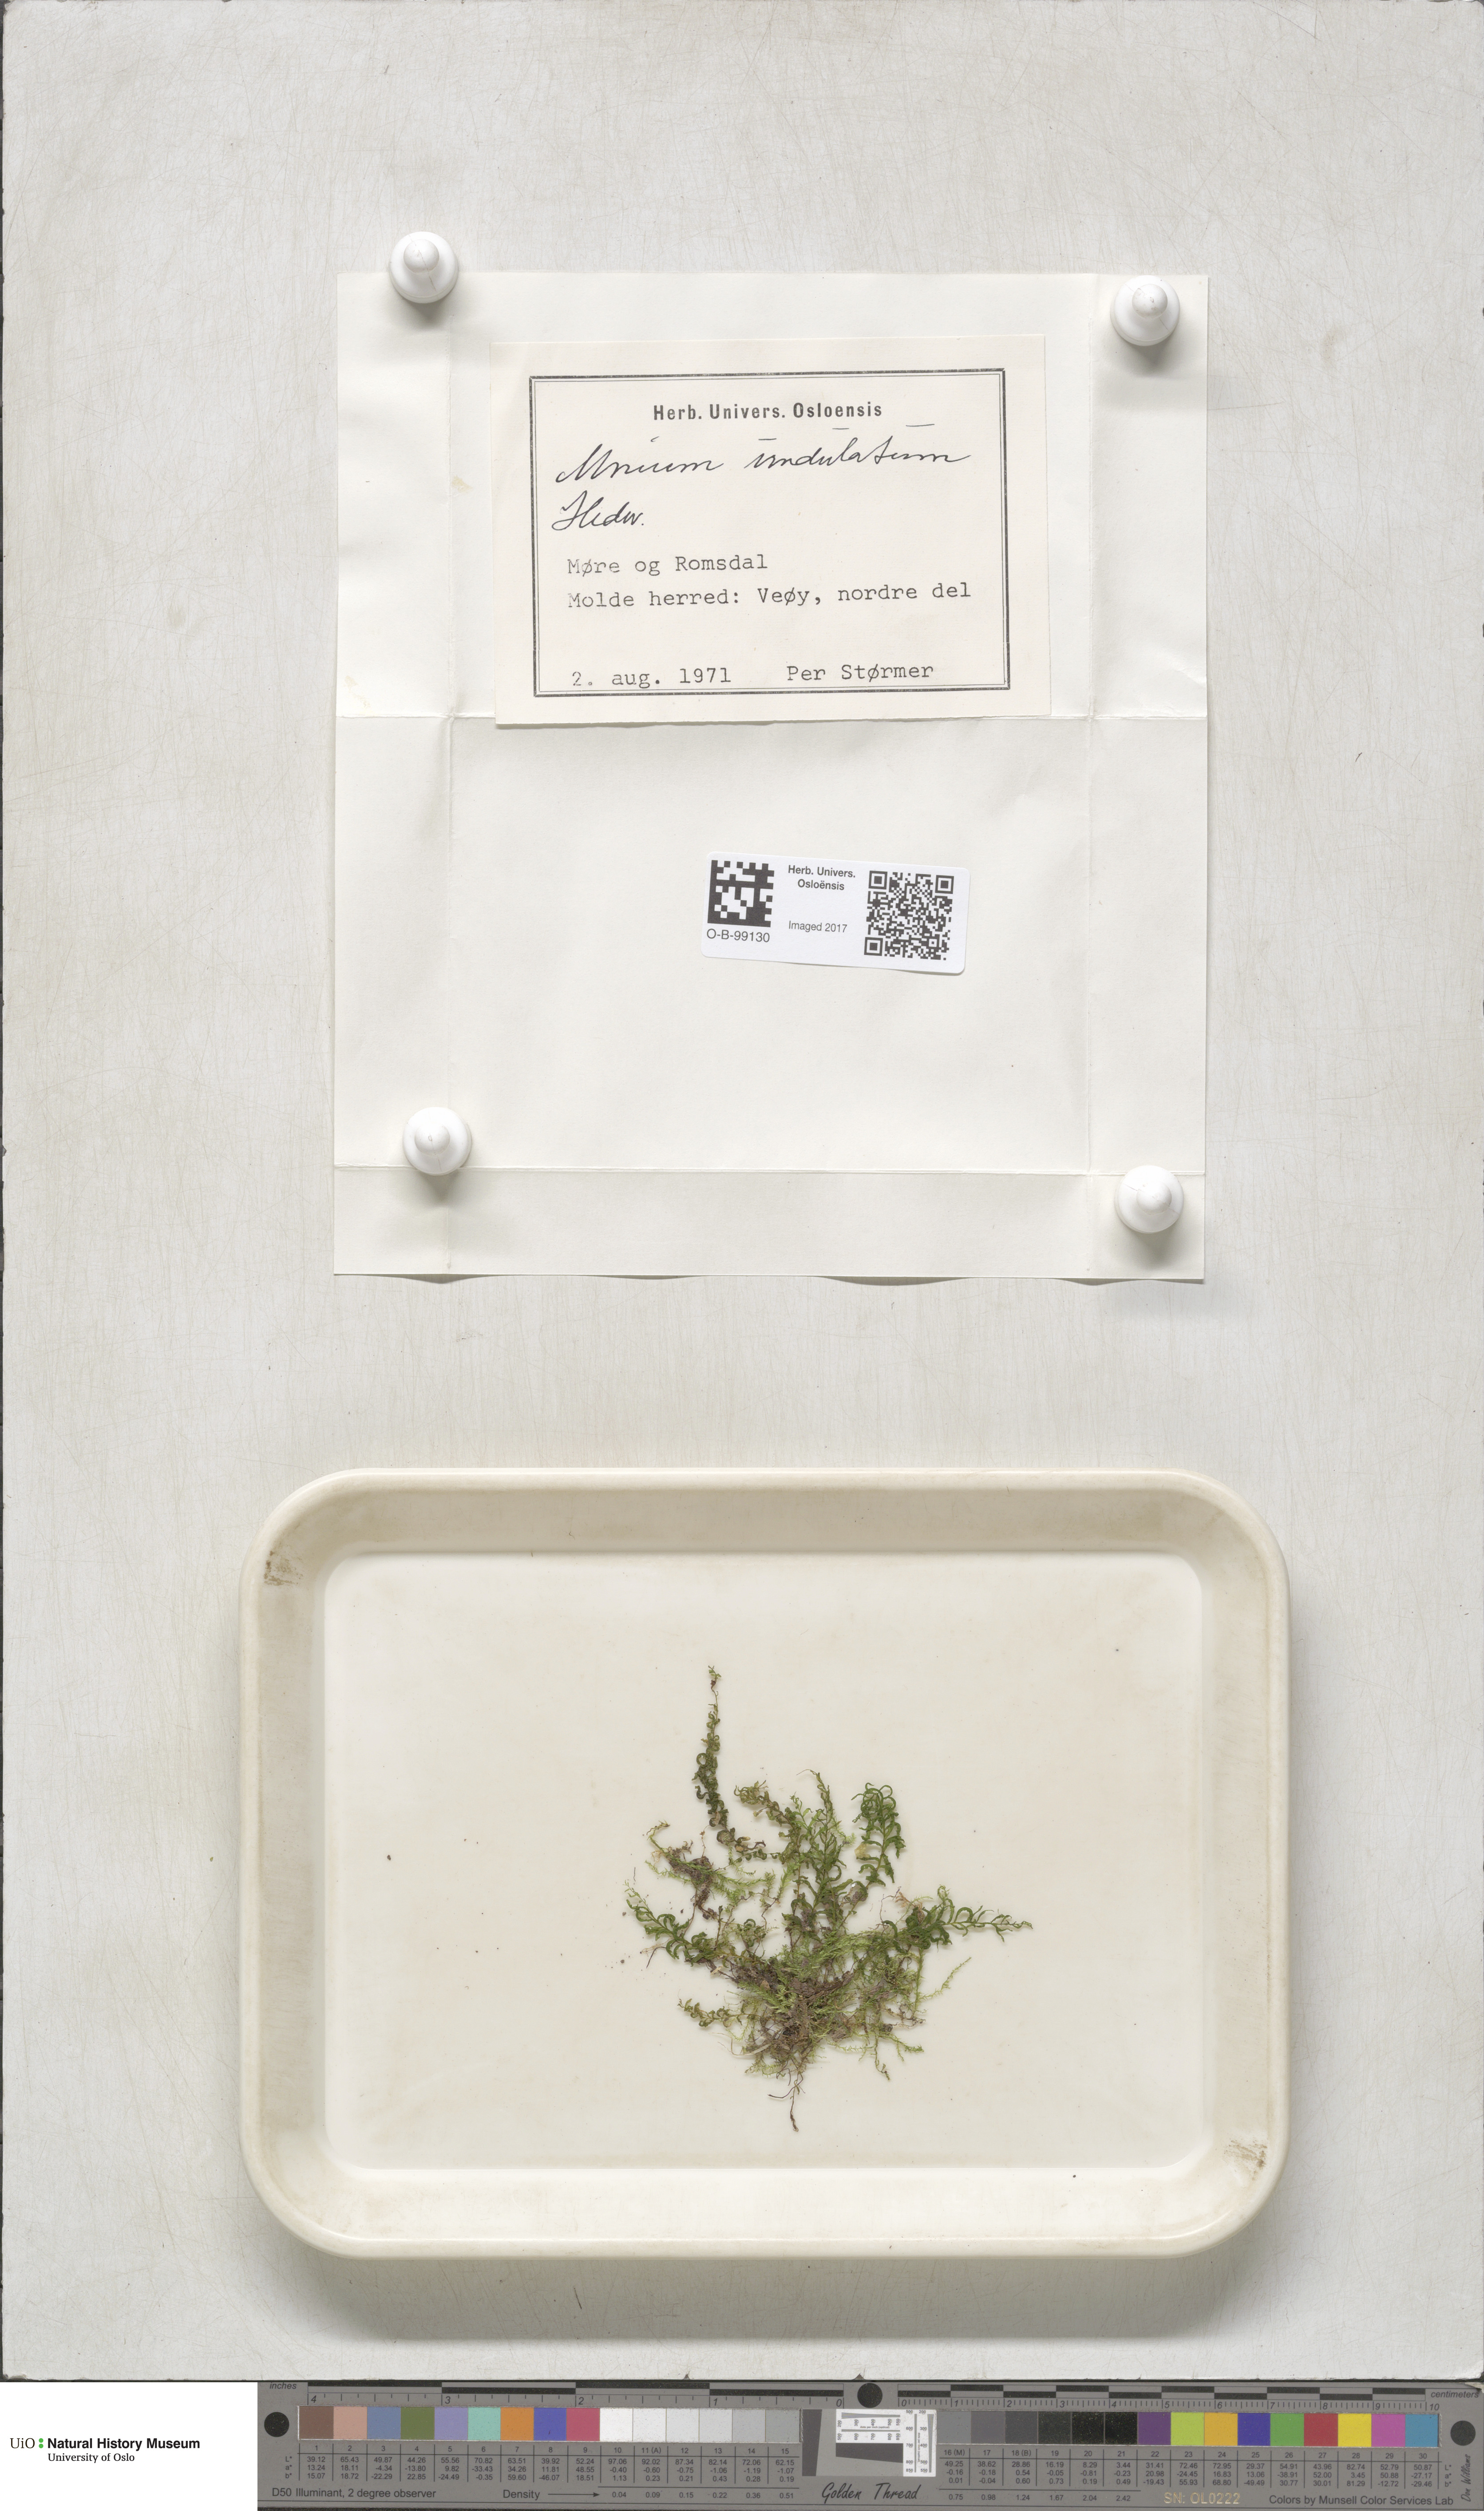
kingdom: Plantae
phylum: Bryophyta
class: Bryopsida
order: Bryales
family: Mniaceae
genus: Plagiomnium
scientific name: Plagiomnium undulatum
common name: Hart's-tongue thyme-moss
